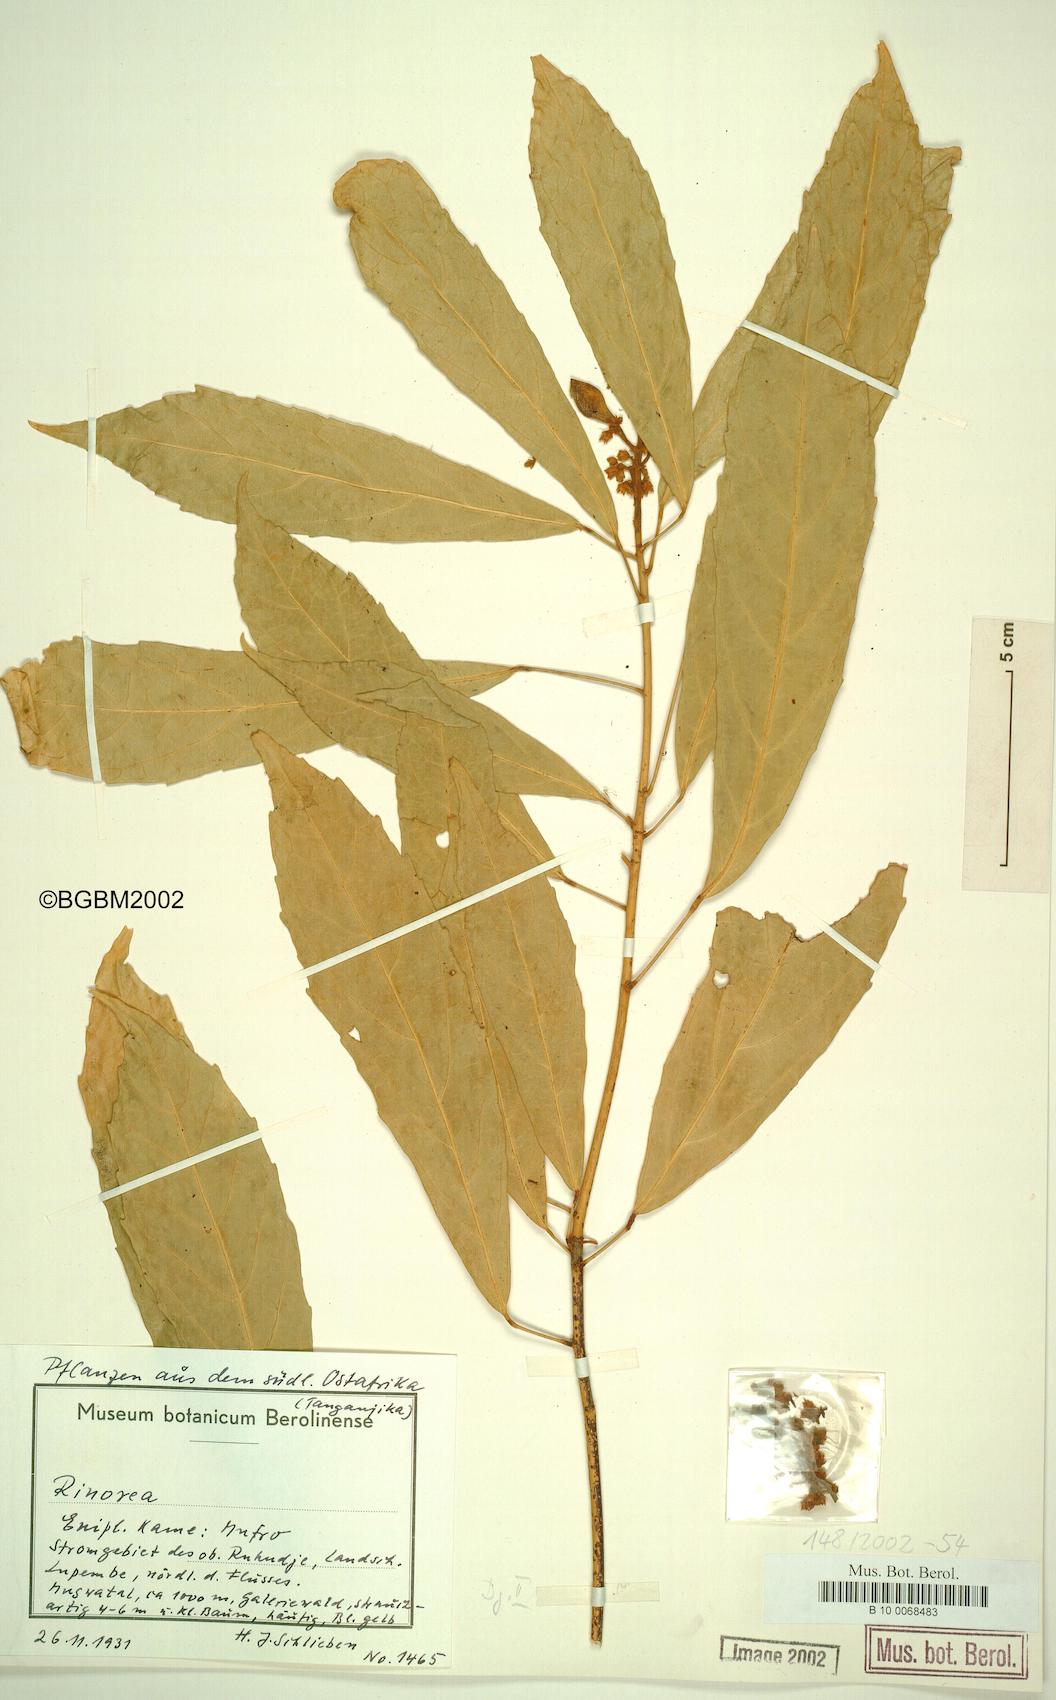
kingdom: Plantae
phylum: Tracheophyta
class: Magnoliopsida
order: Malpighiales
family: Violaceae
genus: Rinorea
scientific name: Rinorea
